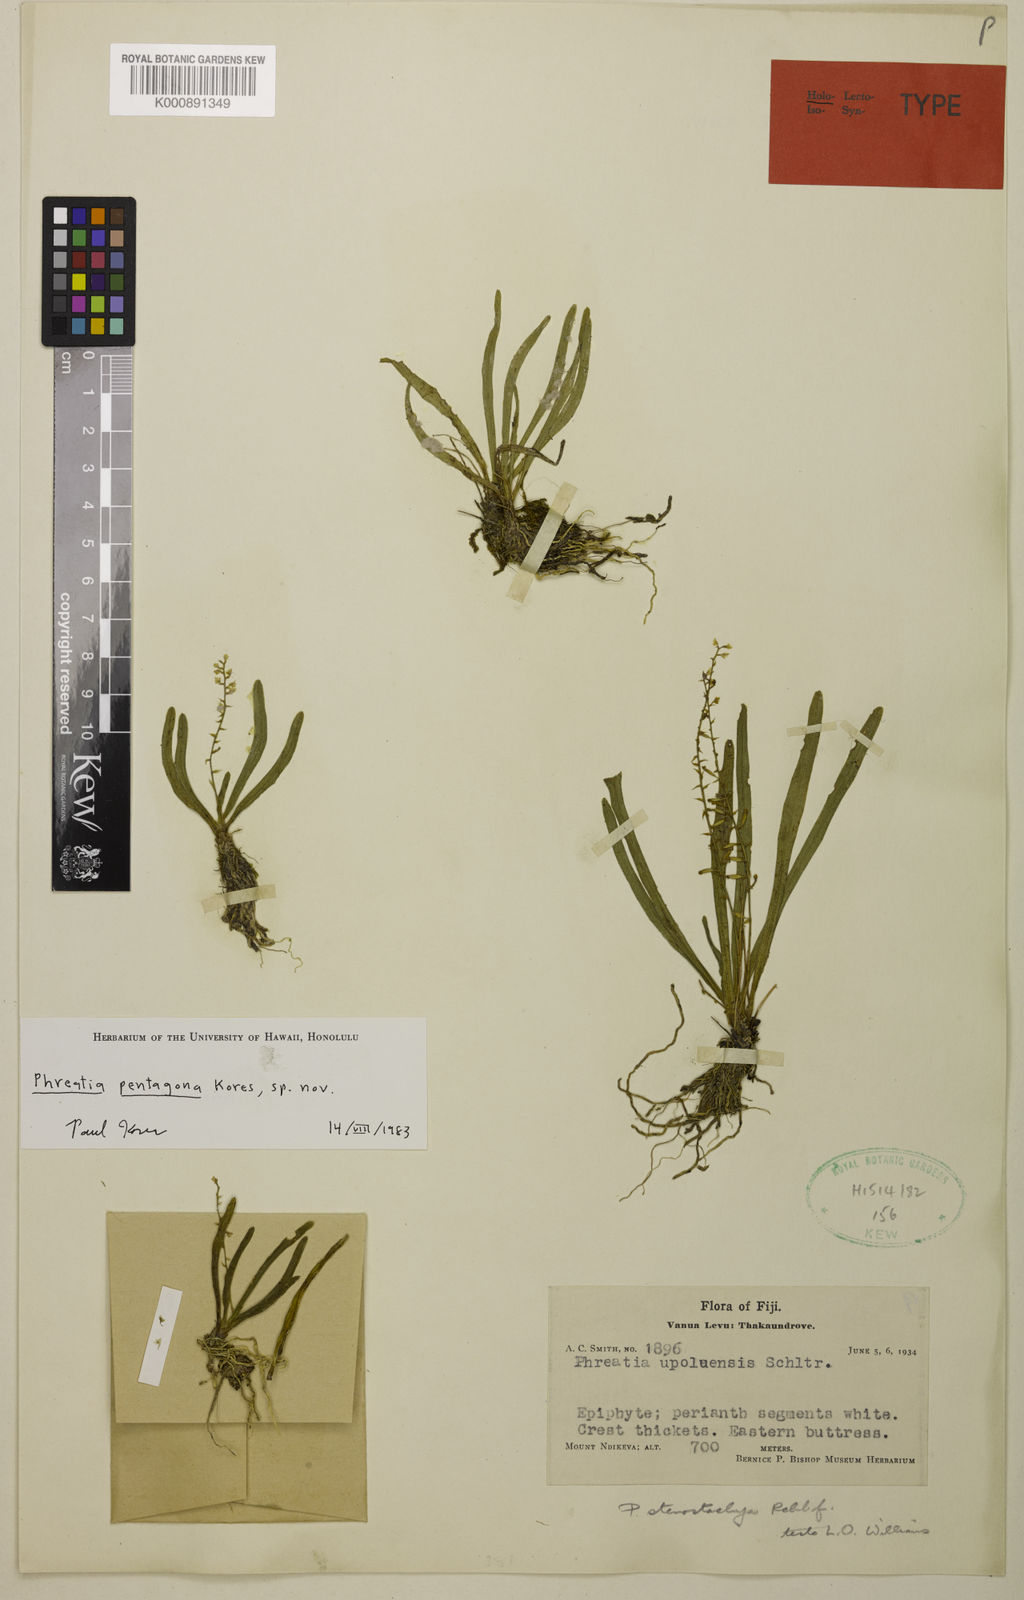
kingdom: Plantae
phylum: Tracheophyta
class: Liliopsida
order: Asparagales
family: Orchidaceae
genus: Phreatia
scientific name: Phreatia pentagona
